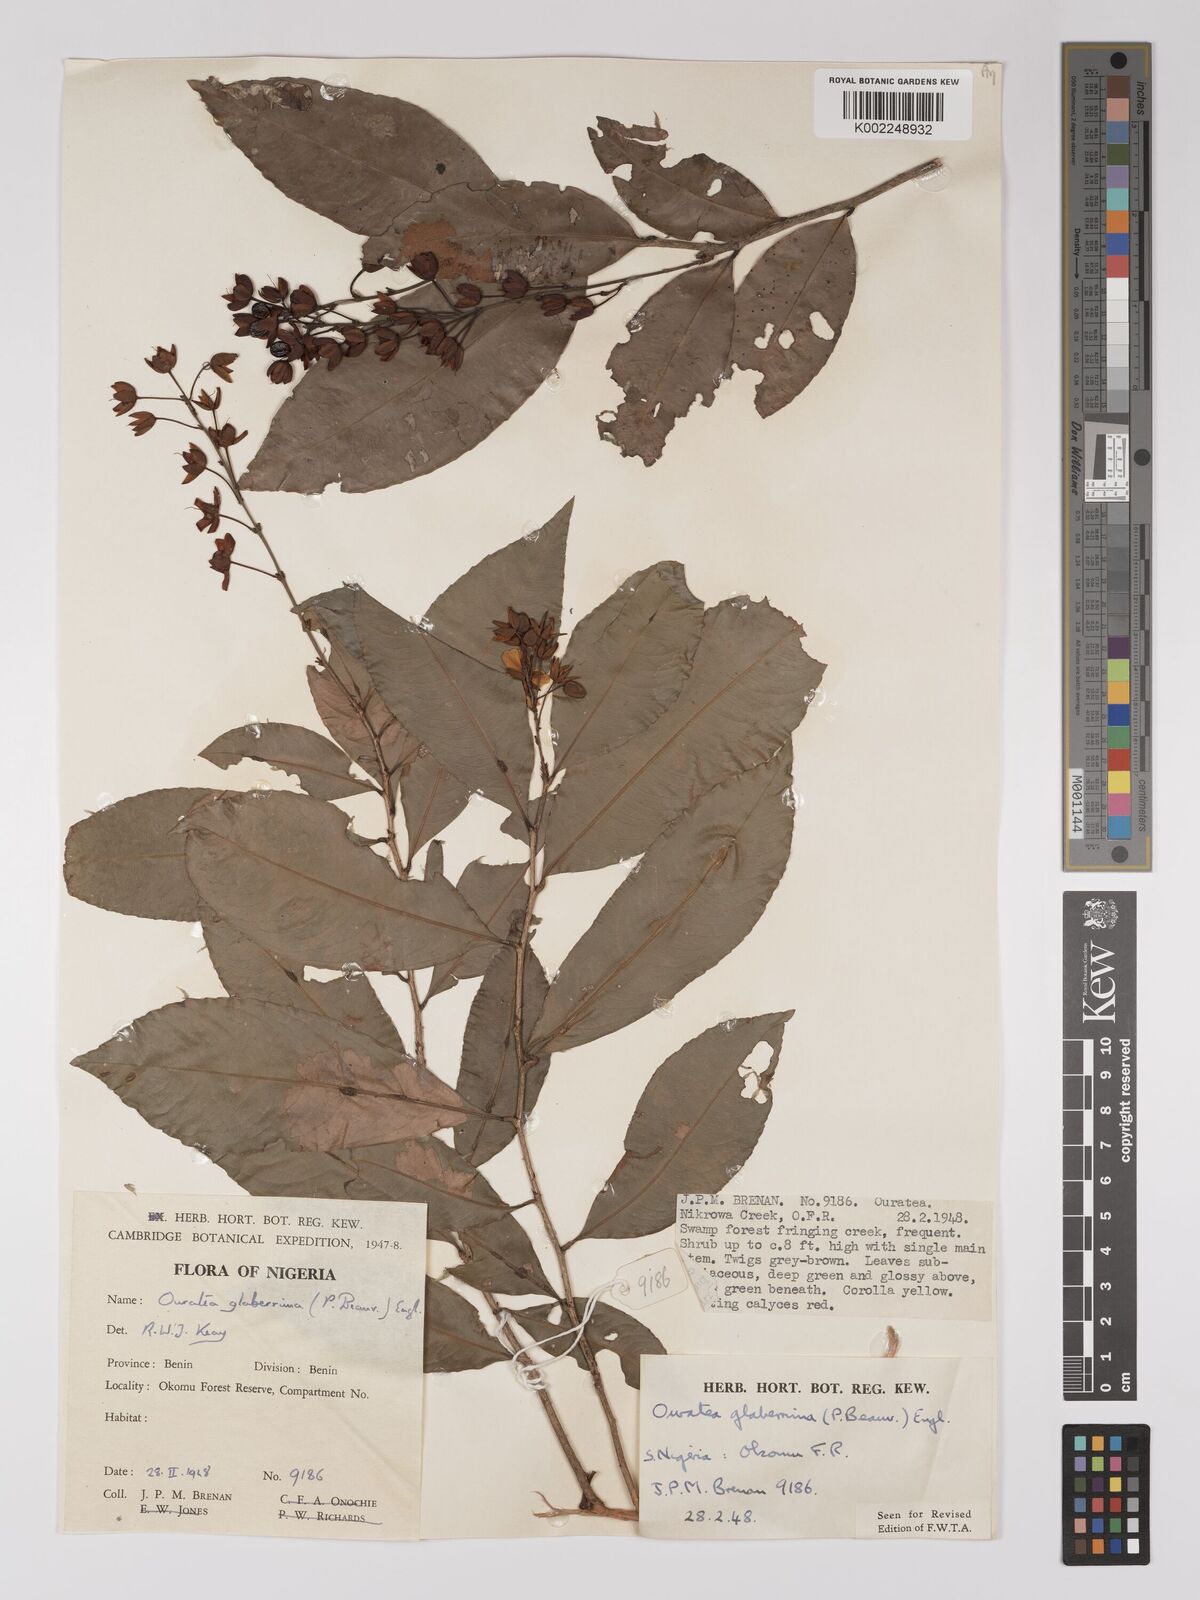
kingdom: Plantae
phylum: Tracheophyta
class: Magnoliopsida
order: Malpighiales
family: Ochnaceae
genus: Campylospermum
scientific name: Campylospermum glaberrimum
